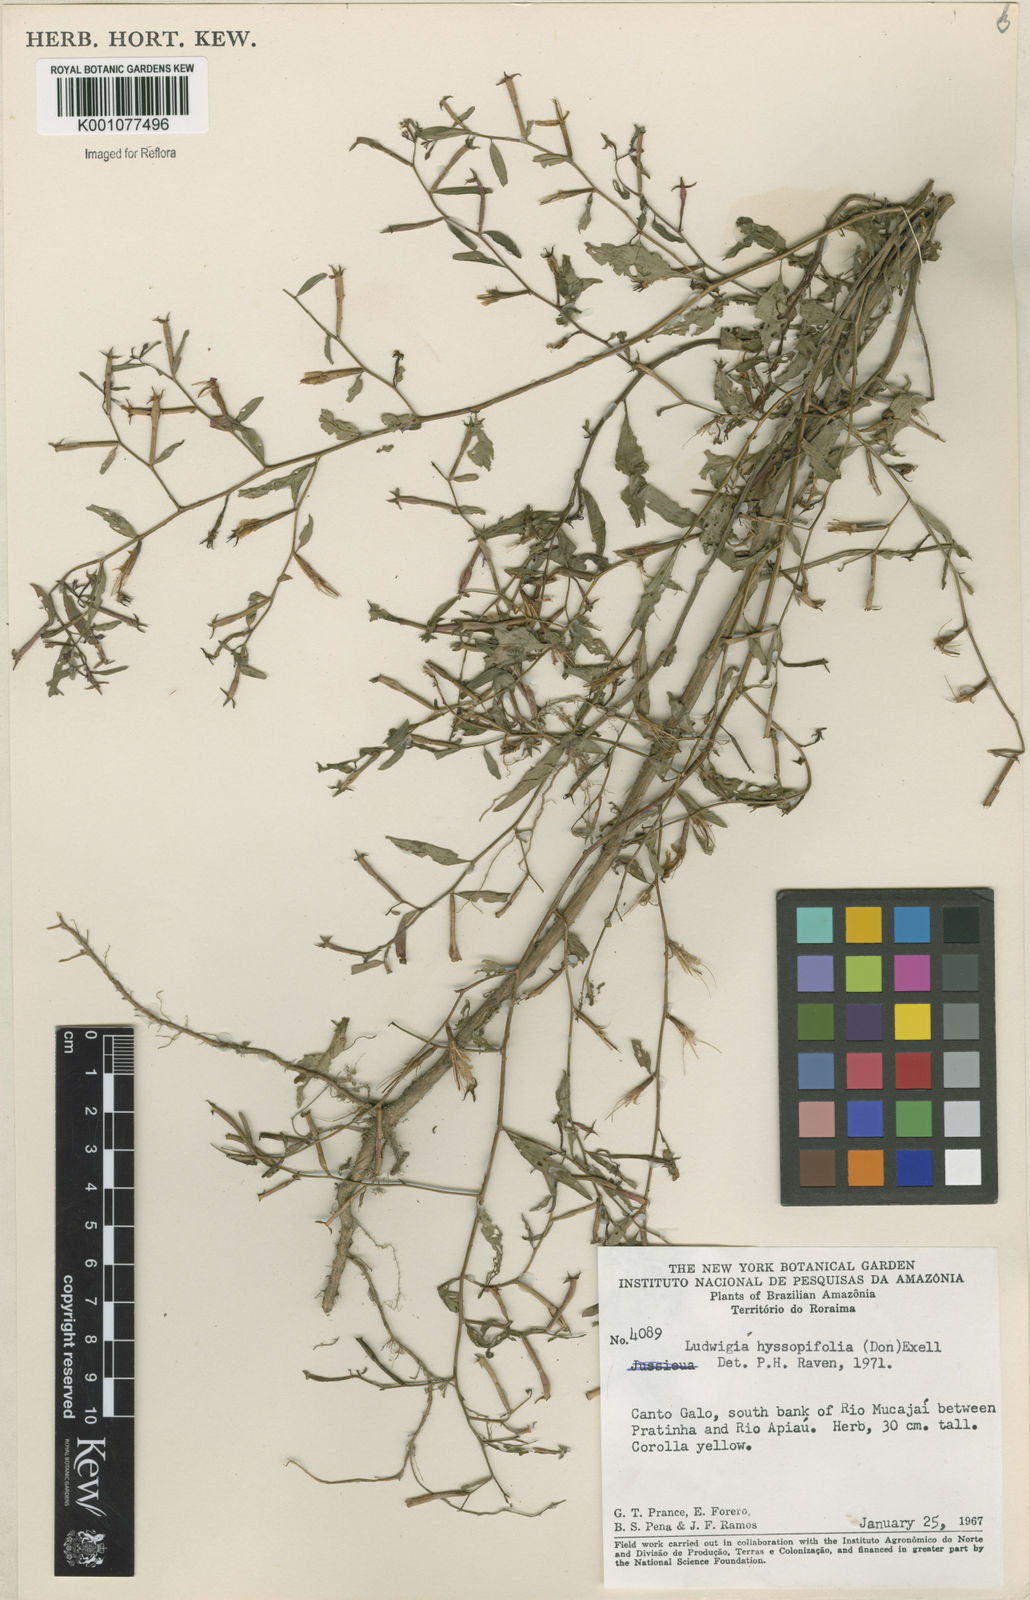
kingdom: Plantae
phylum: Tracheophyta
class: Magnoliopsida
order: Myrtales
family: Onagraceae
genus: Ludwigia
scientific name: Ludwigia hyssopifolia
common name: Linear leaf water primrose
